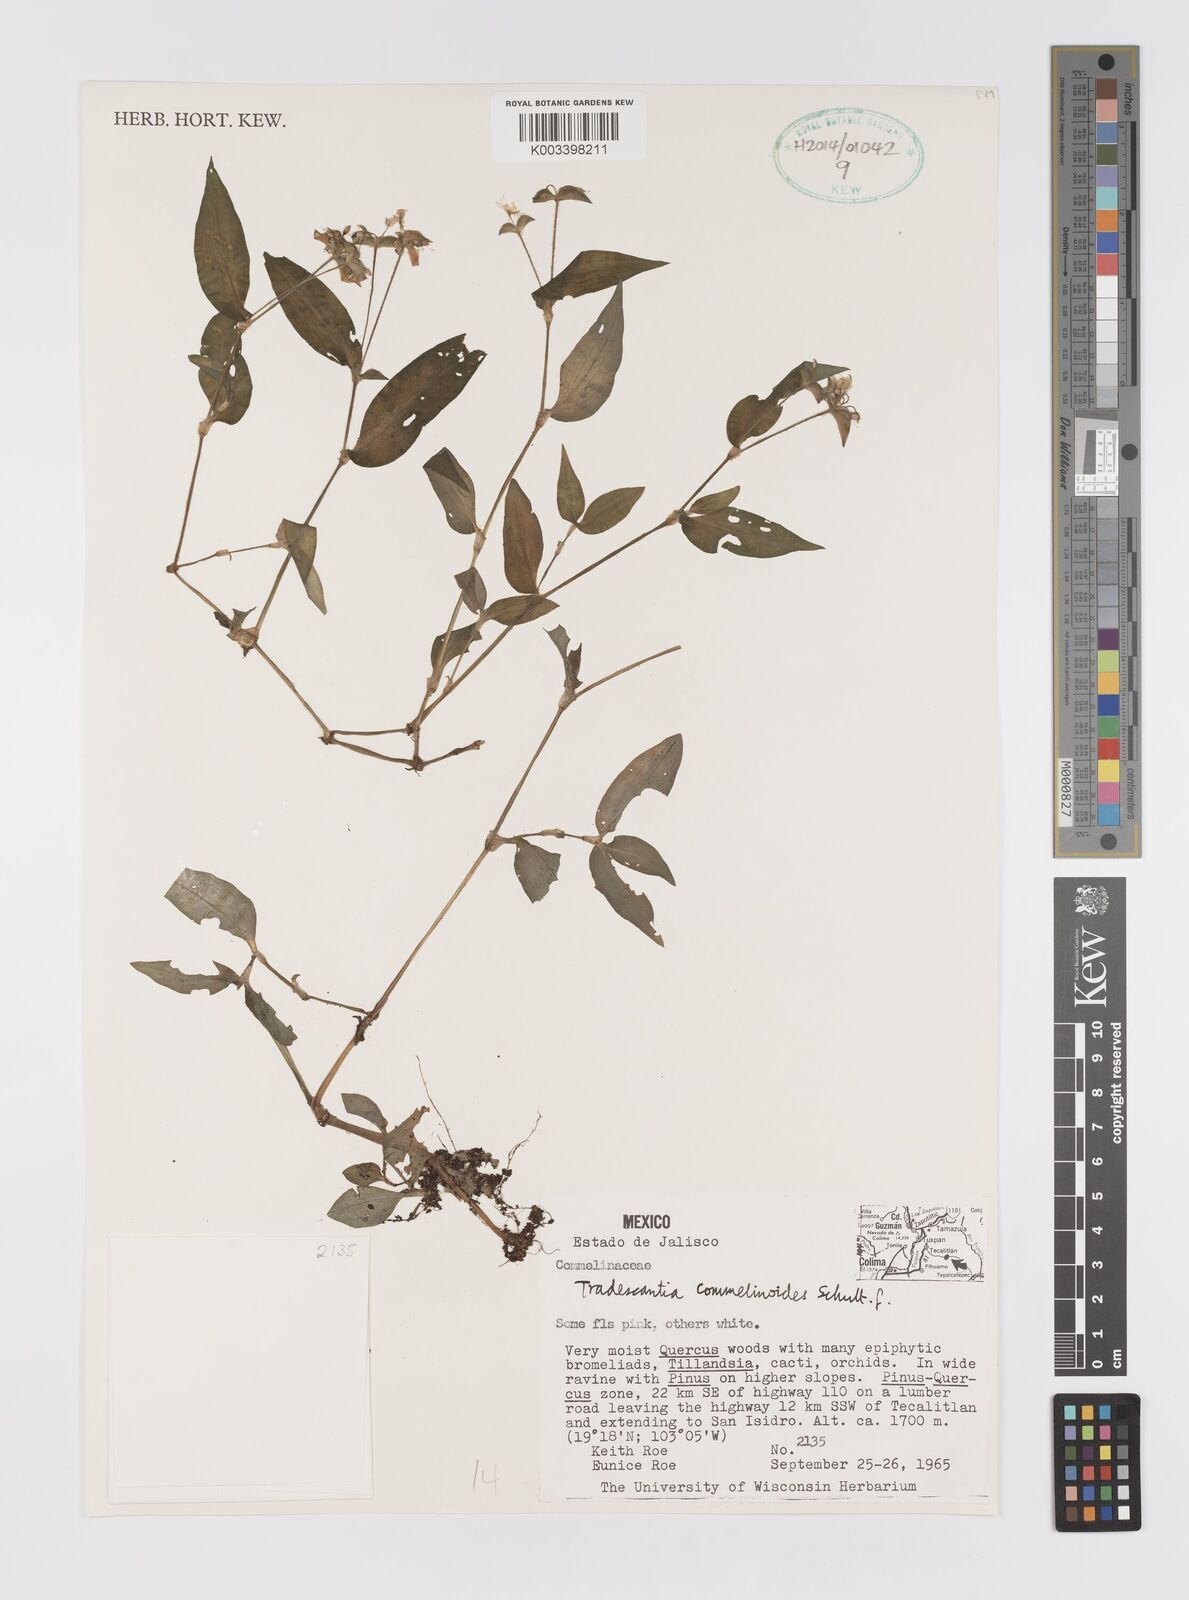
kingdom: Plantae
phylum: Tracheophyta
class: Liliopsida
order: Commelinales
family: Commelinaceae
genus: Tradescantia
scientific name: Tradescantia commelinoides
